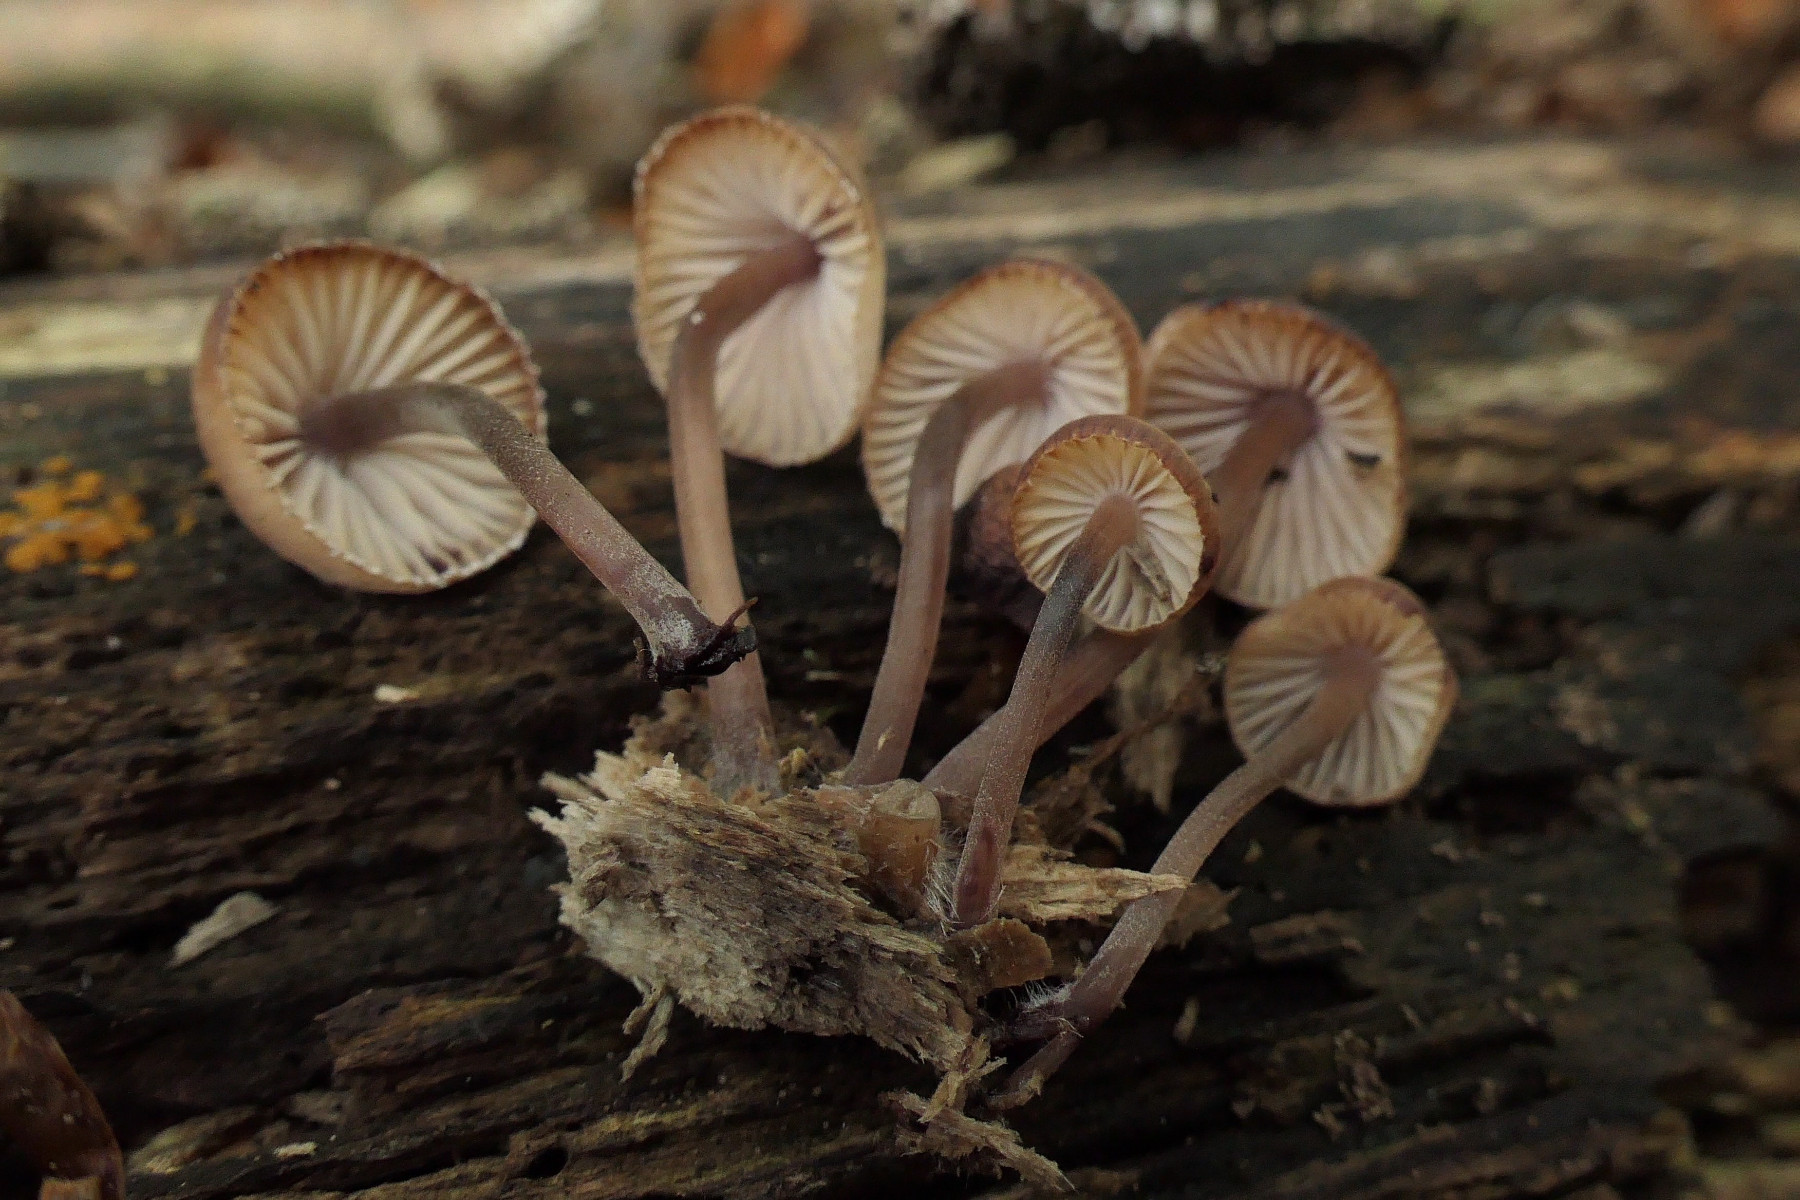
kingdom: Fungi
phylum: Basidiomycota
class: Agaricomycetes
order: Agaricales
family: Mycenaceae
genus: Mycena
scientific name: Mycena haematopus
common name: blødende huesvamp
